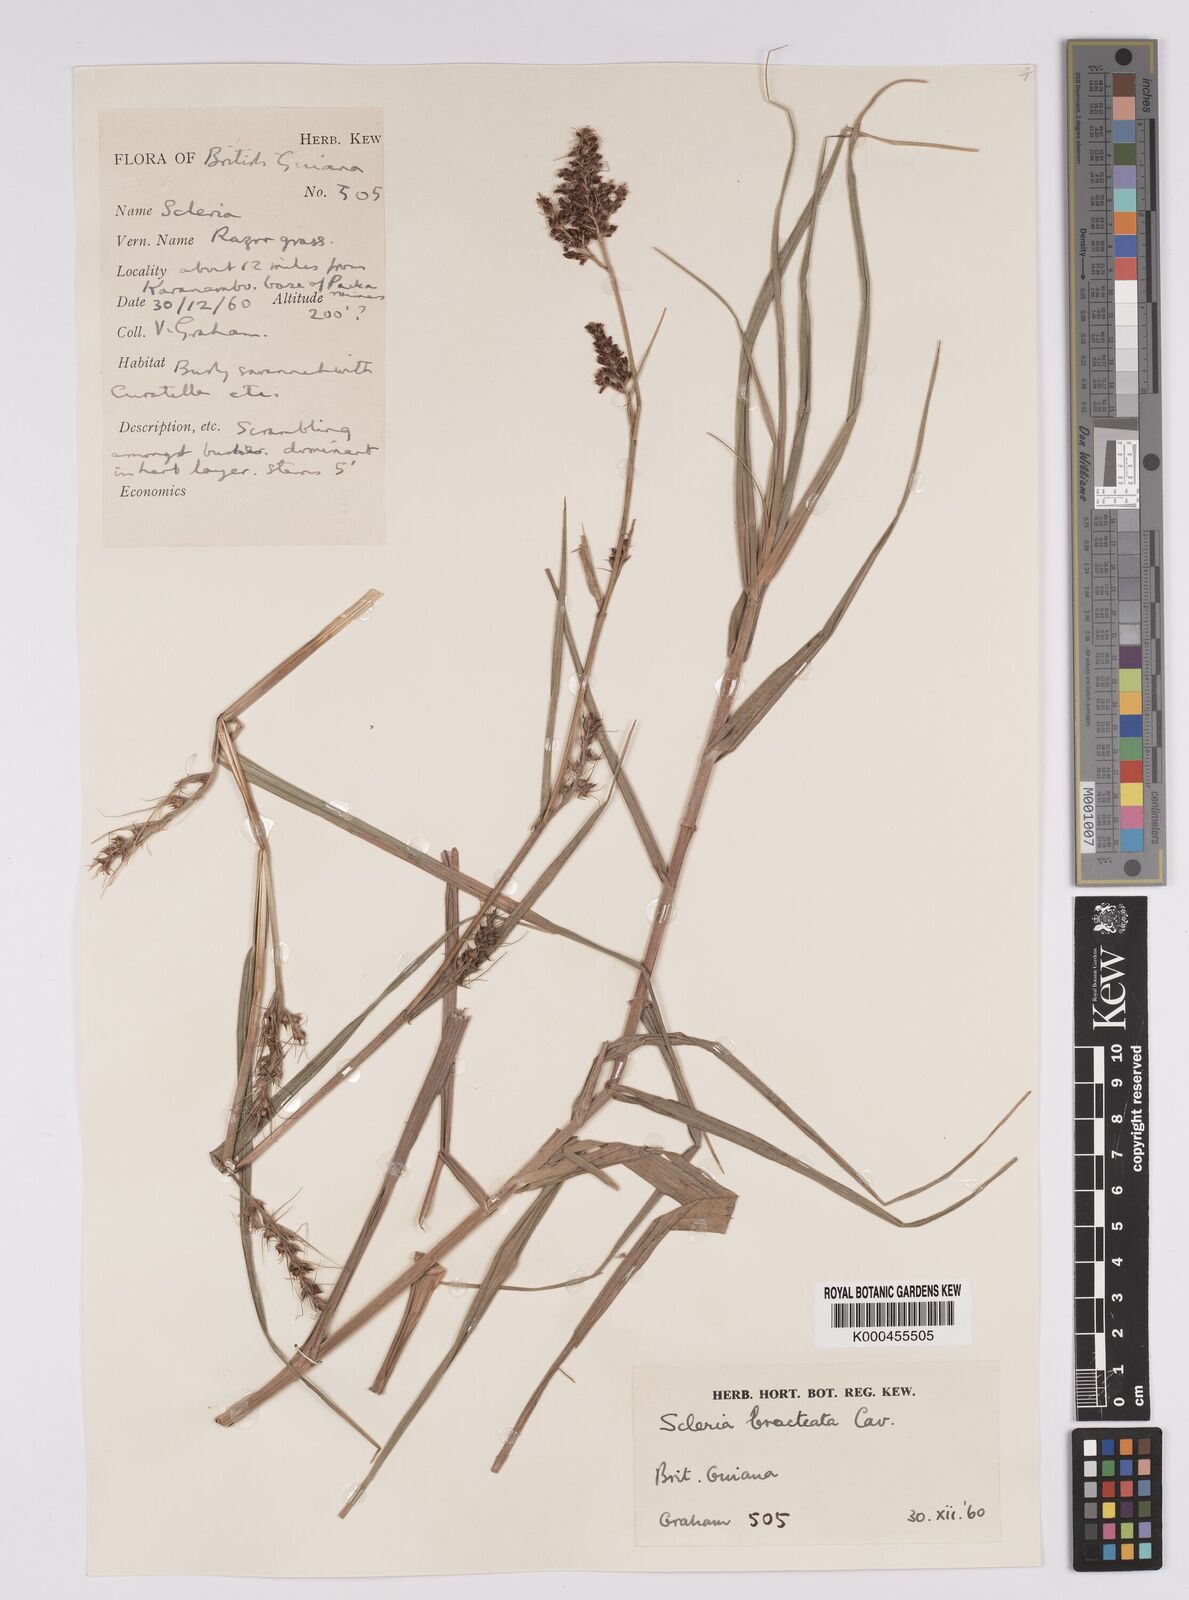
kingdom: Plantae
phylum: Tracheophyta
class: Liliopsida
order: Poales
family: Cyperaceae
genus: Scleria
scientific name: Scleria bracteata
